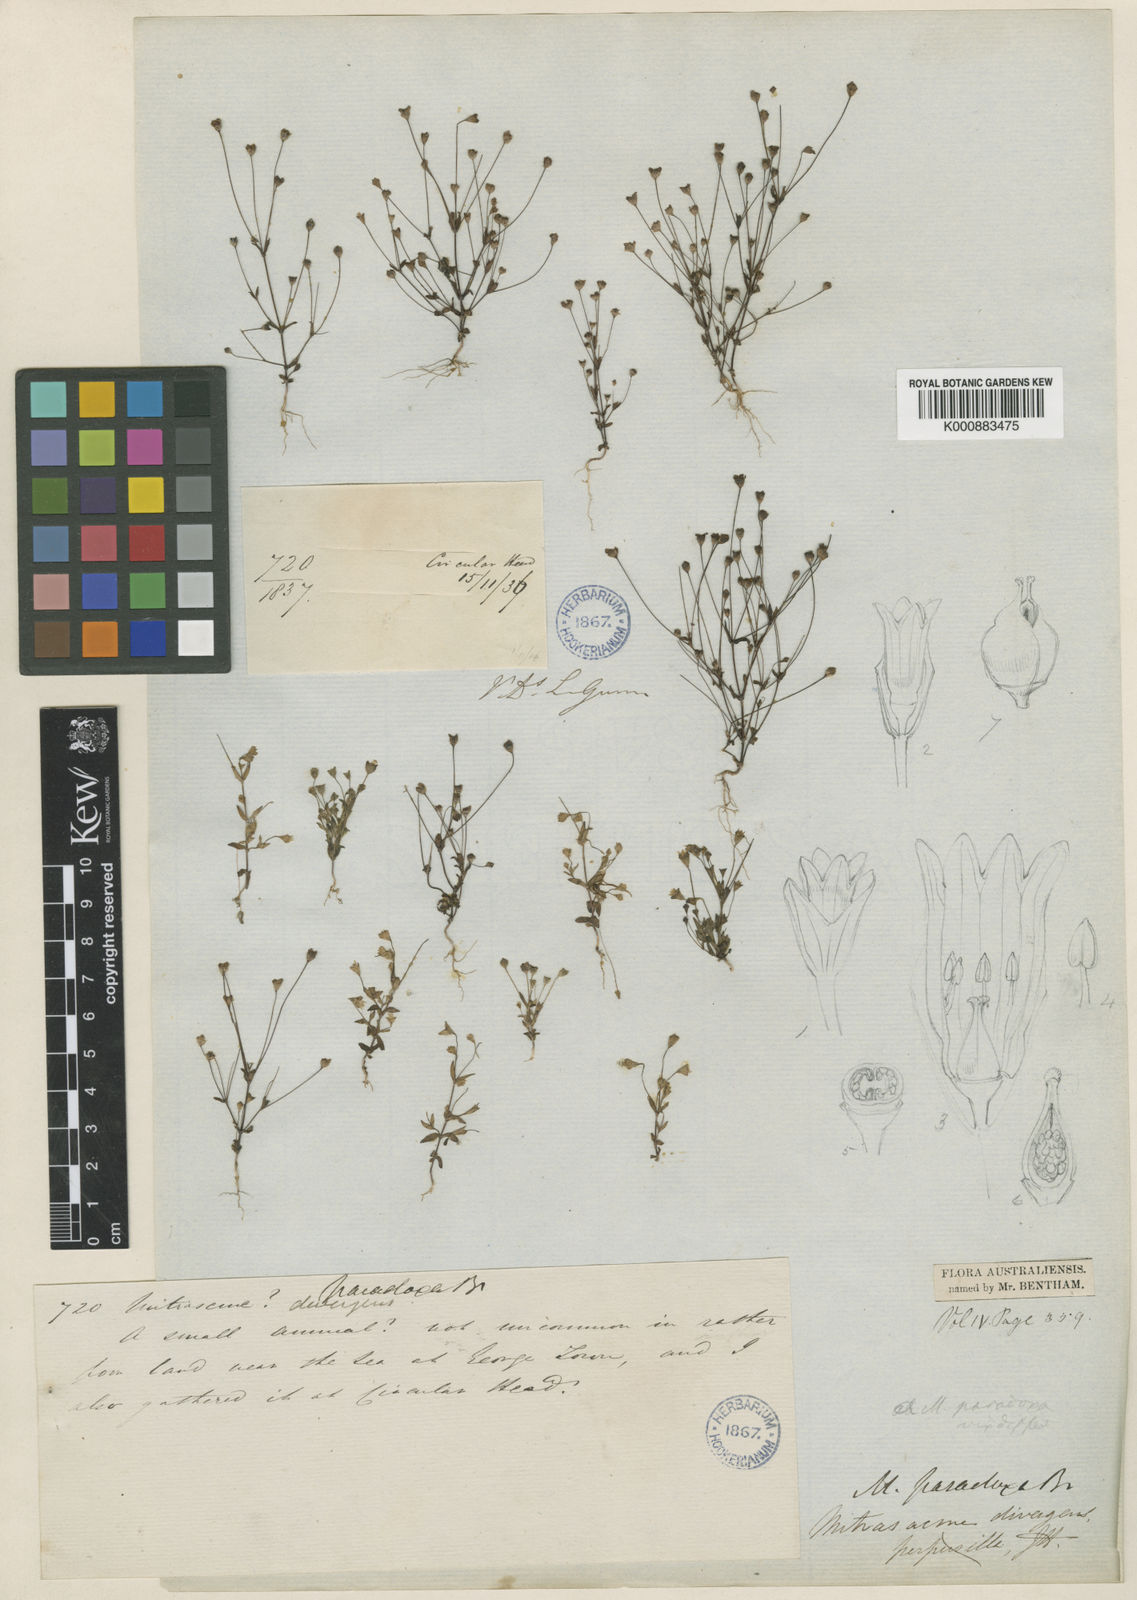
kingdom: Plantae
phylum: Tracheophyta
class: Magnoliopsida
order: Gentianales
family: Loganiaceae
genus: Phyllangium
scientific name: Phyllangium paradoxum
